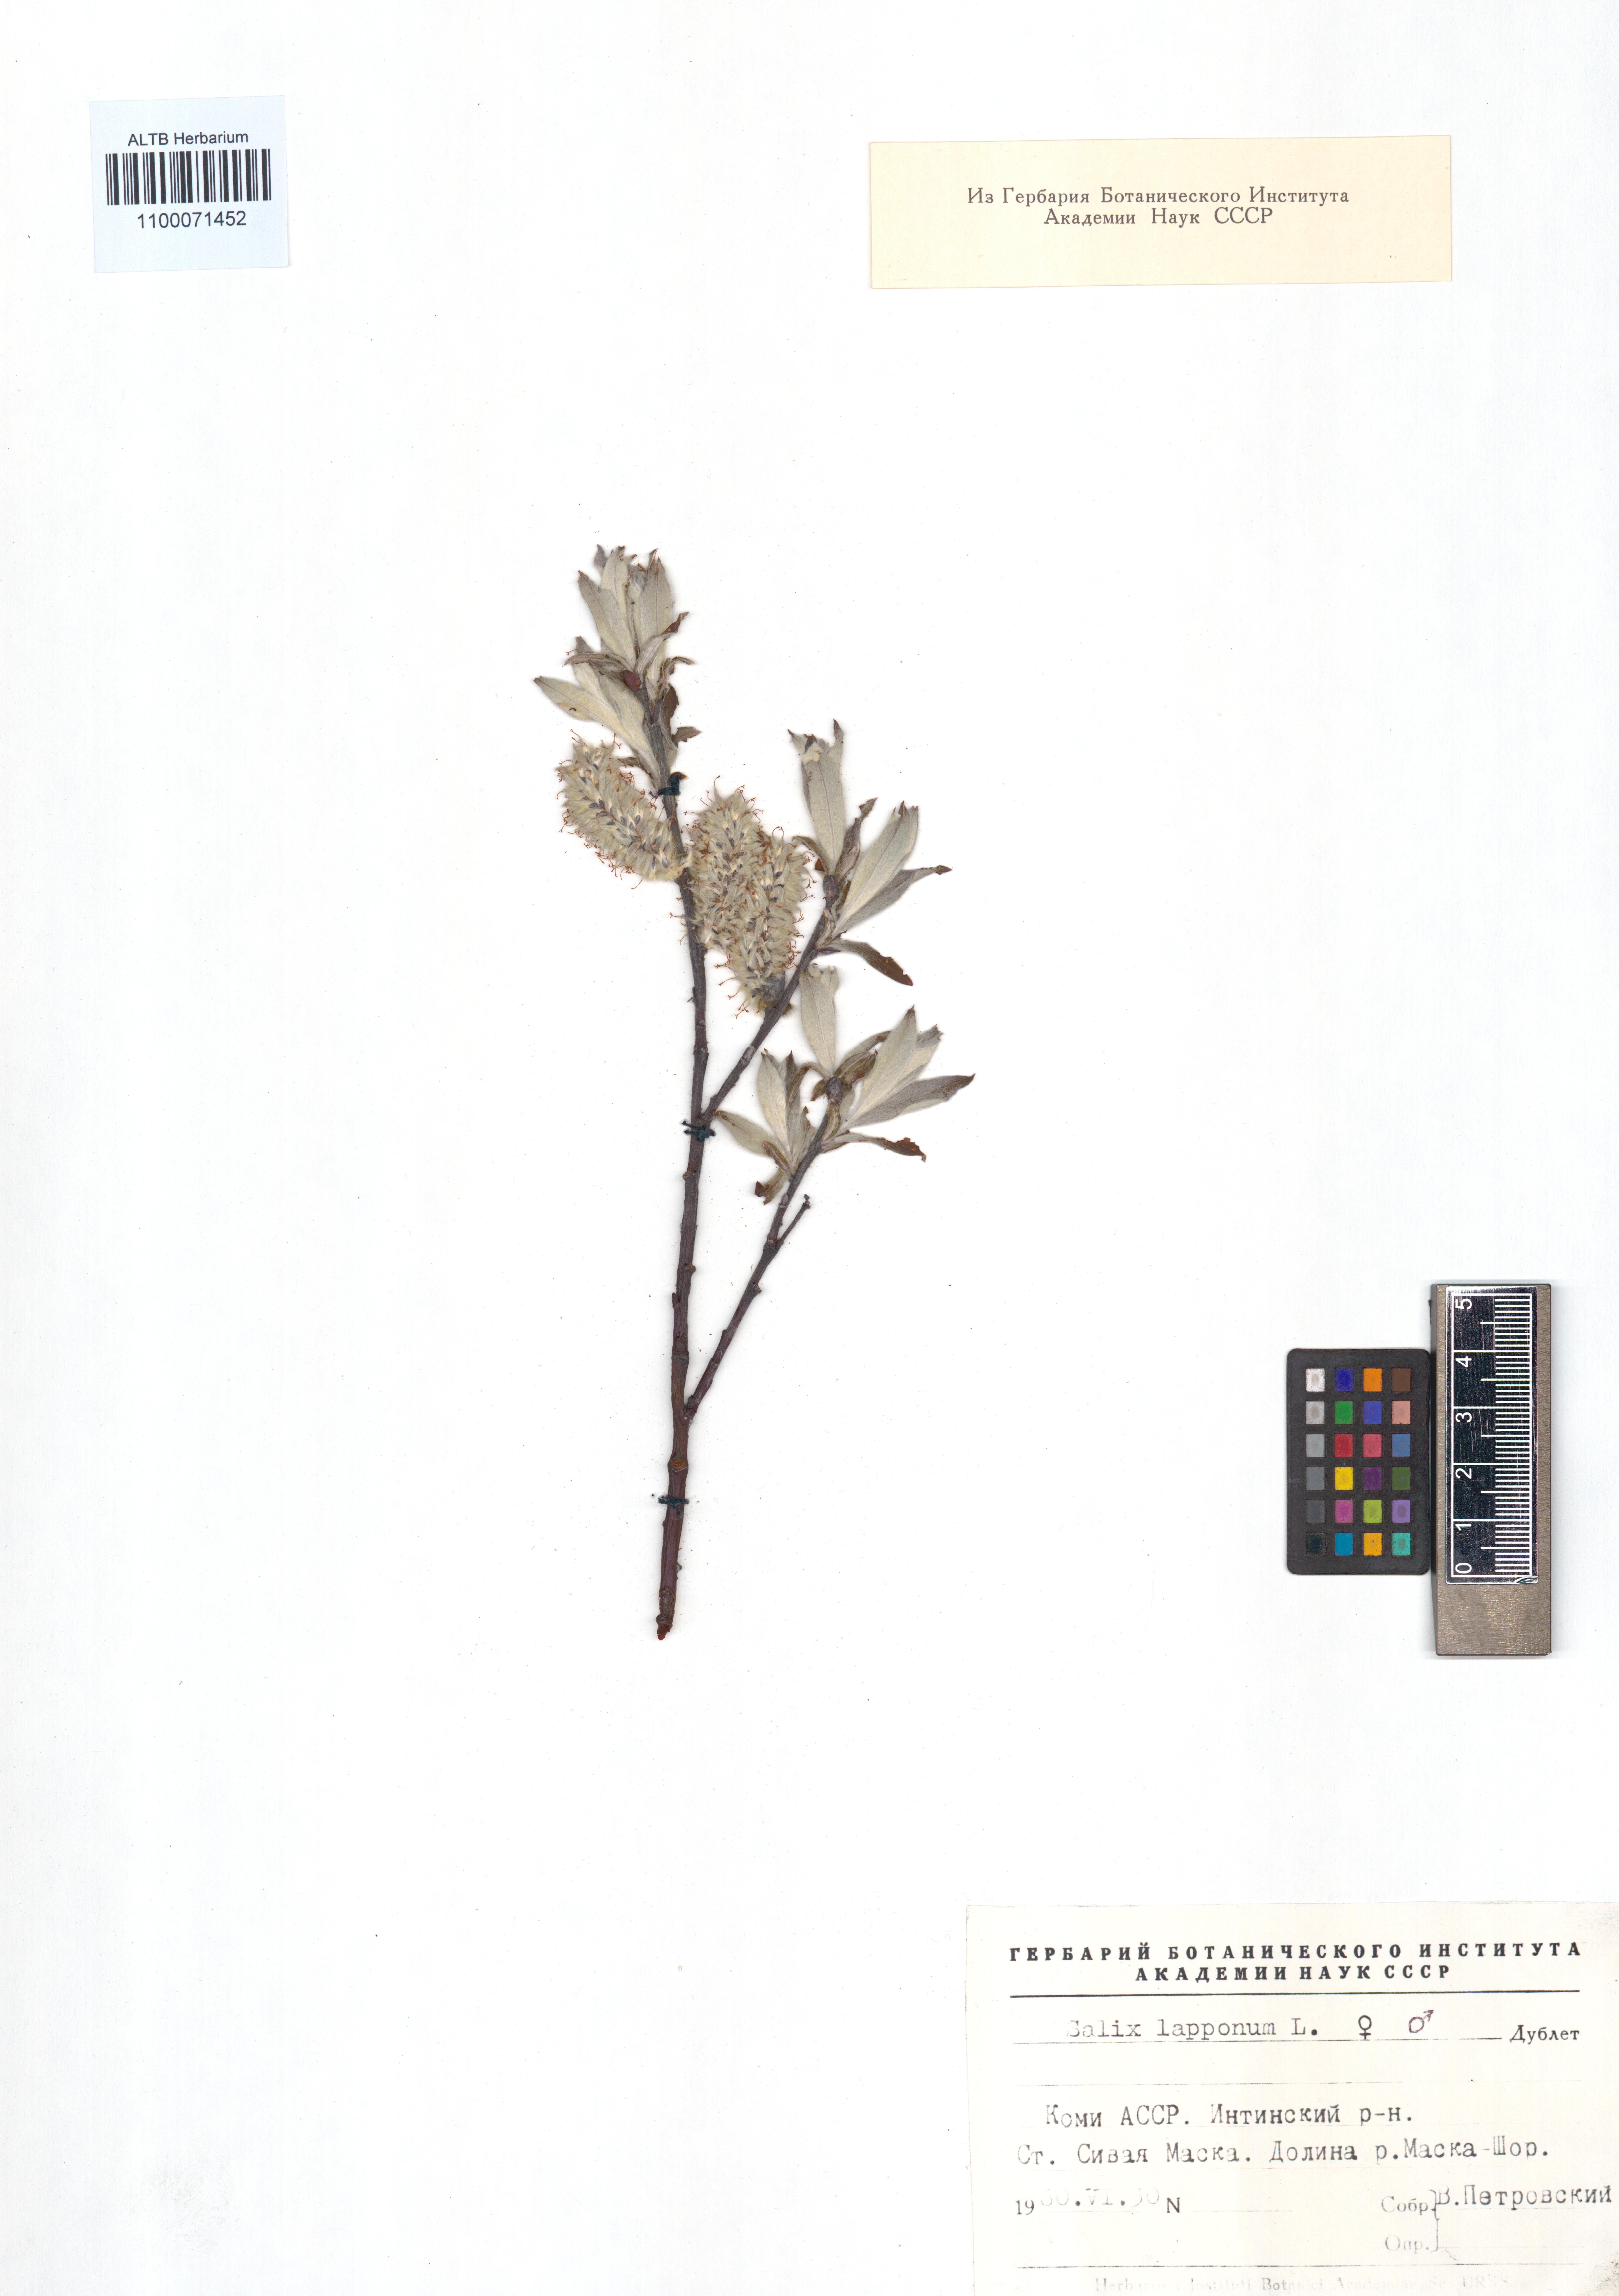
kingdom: Plantae
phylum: Tracheophyta
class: Magnoliopsida
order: Malpighiales
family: Salicaceae
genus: Salix
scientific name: Salix lapponum
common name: Downy willow
